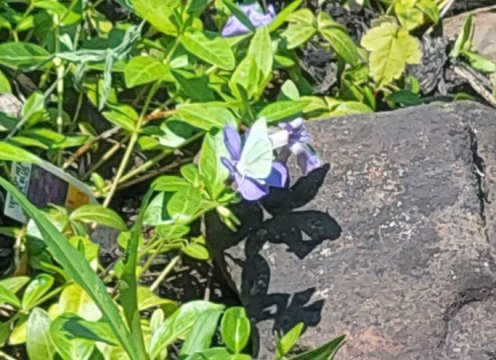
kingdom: Animalia
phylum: Arthropoda
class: Insecta
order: Lepidoptera
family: Pieridae
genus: Pieris
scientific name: Pieris rapae
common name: Cabbage White
